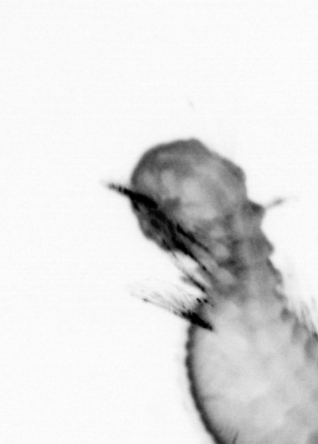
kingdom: Animalia
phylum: Annelida
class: Polychaeta
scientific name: Polychaeta
